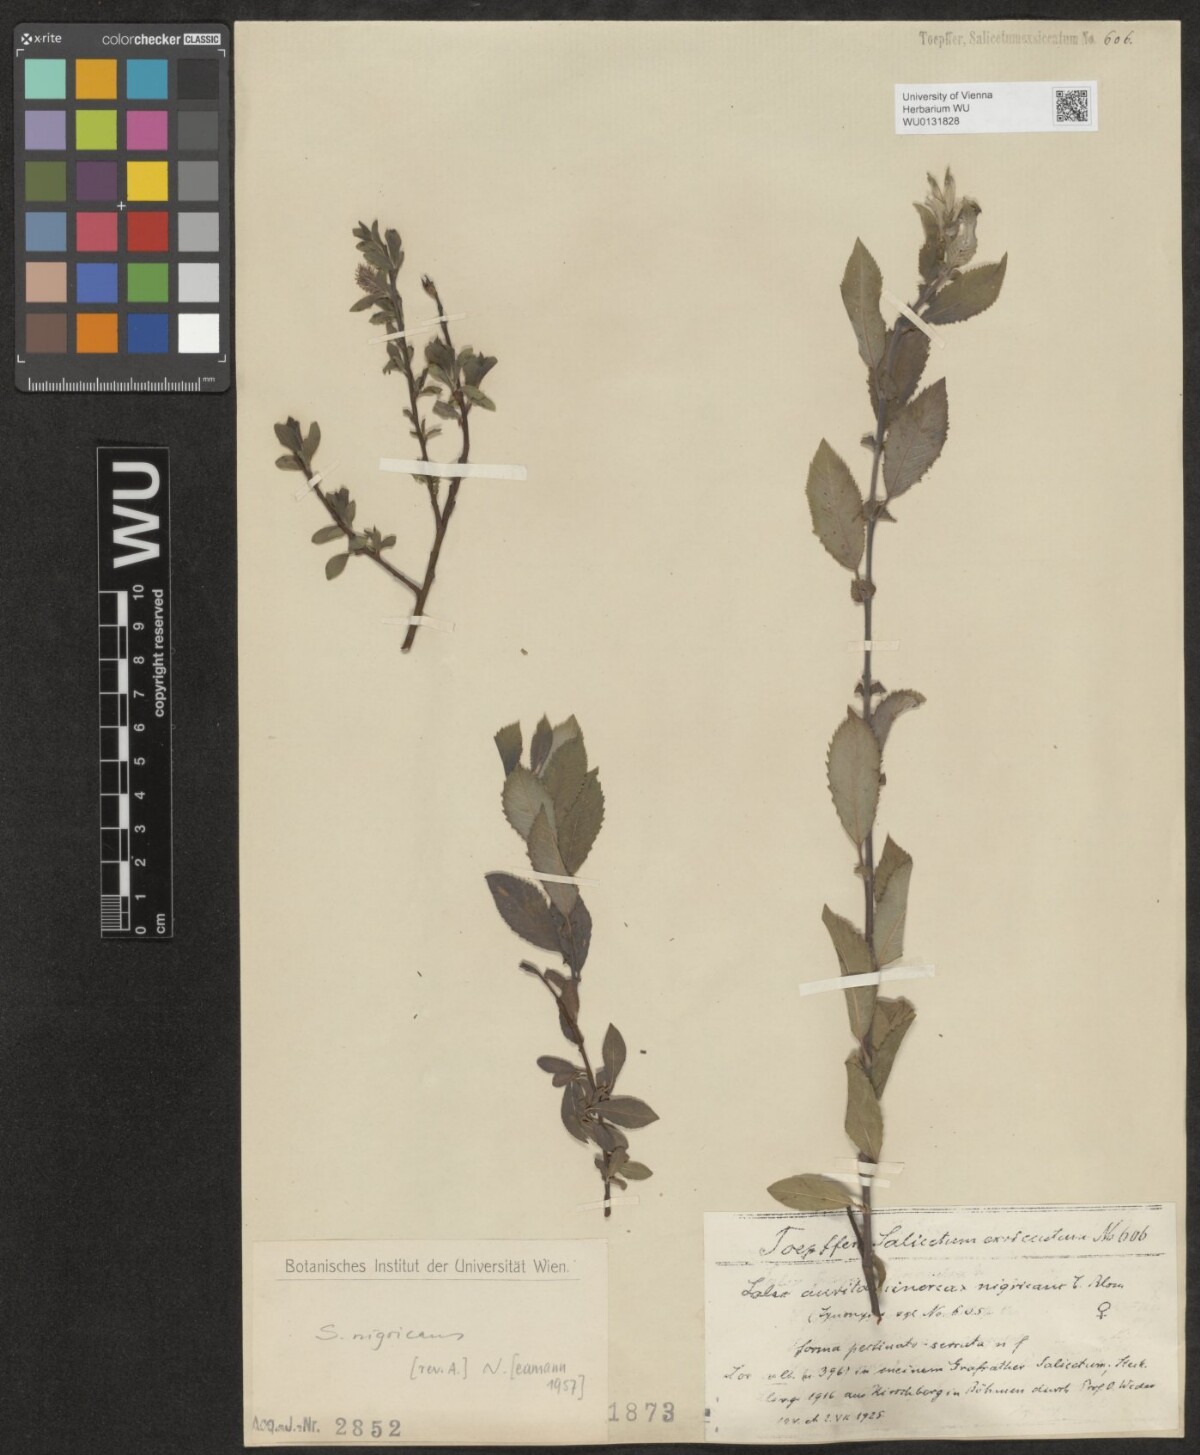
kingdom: Plantae
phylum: Tracheophyta
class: Magnoliopsida
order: Malpighiales
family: Salicaceae
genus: Salix
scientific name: Salix myrsinifolia
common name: Dark-leaved willow
